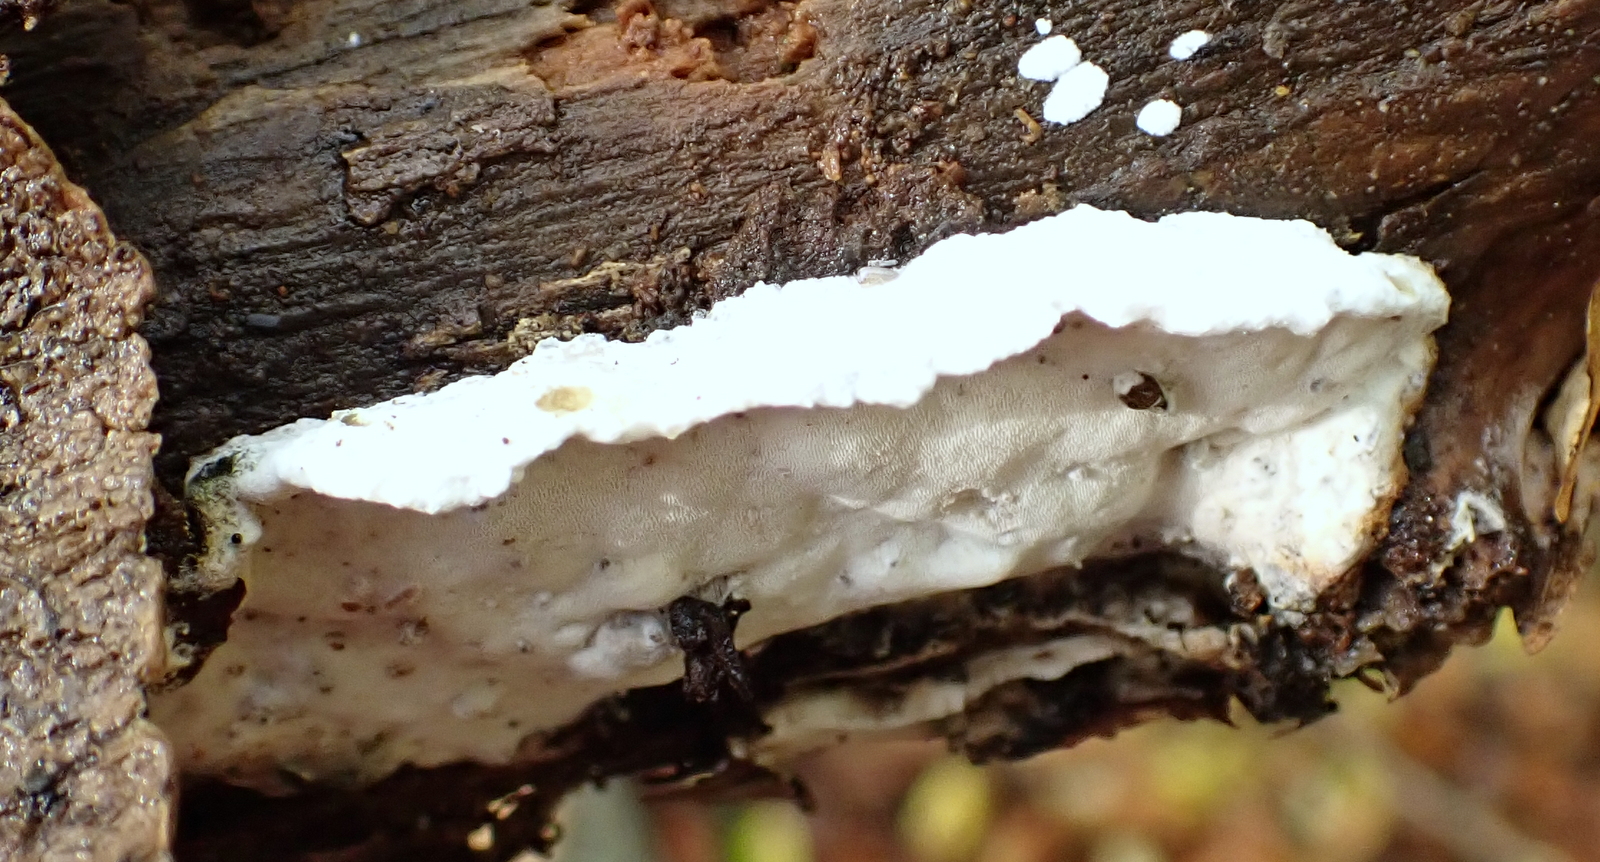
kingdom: Fungi
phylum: Basidiomycota
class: Agaricomycetes
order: Polyporales
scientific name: Polyporales
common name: poresvampordenen
